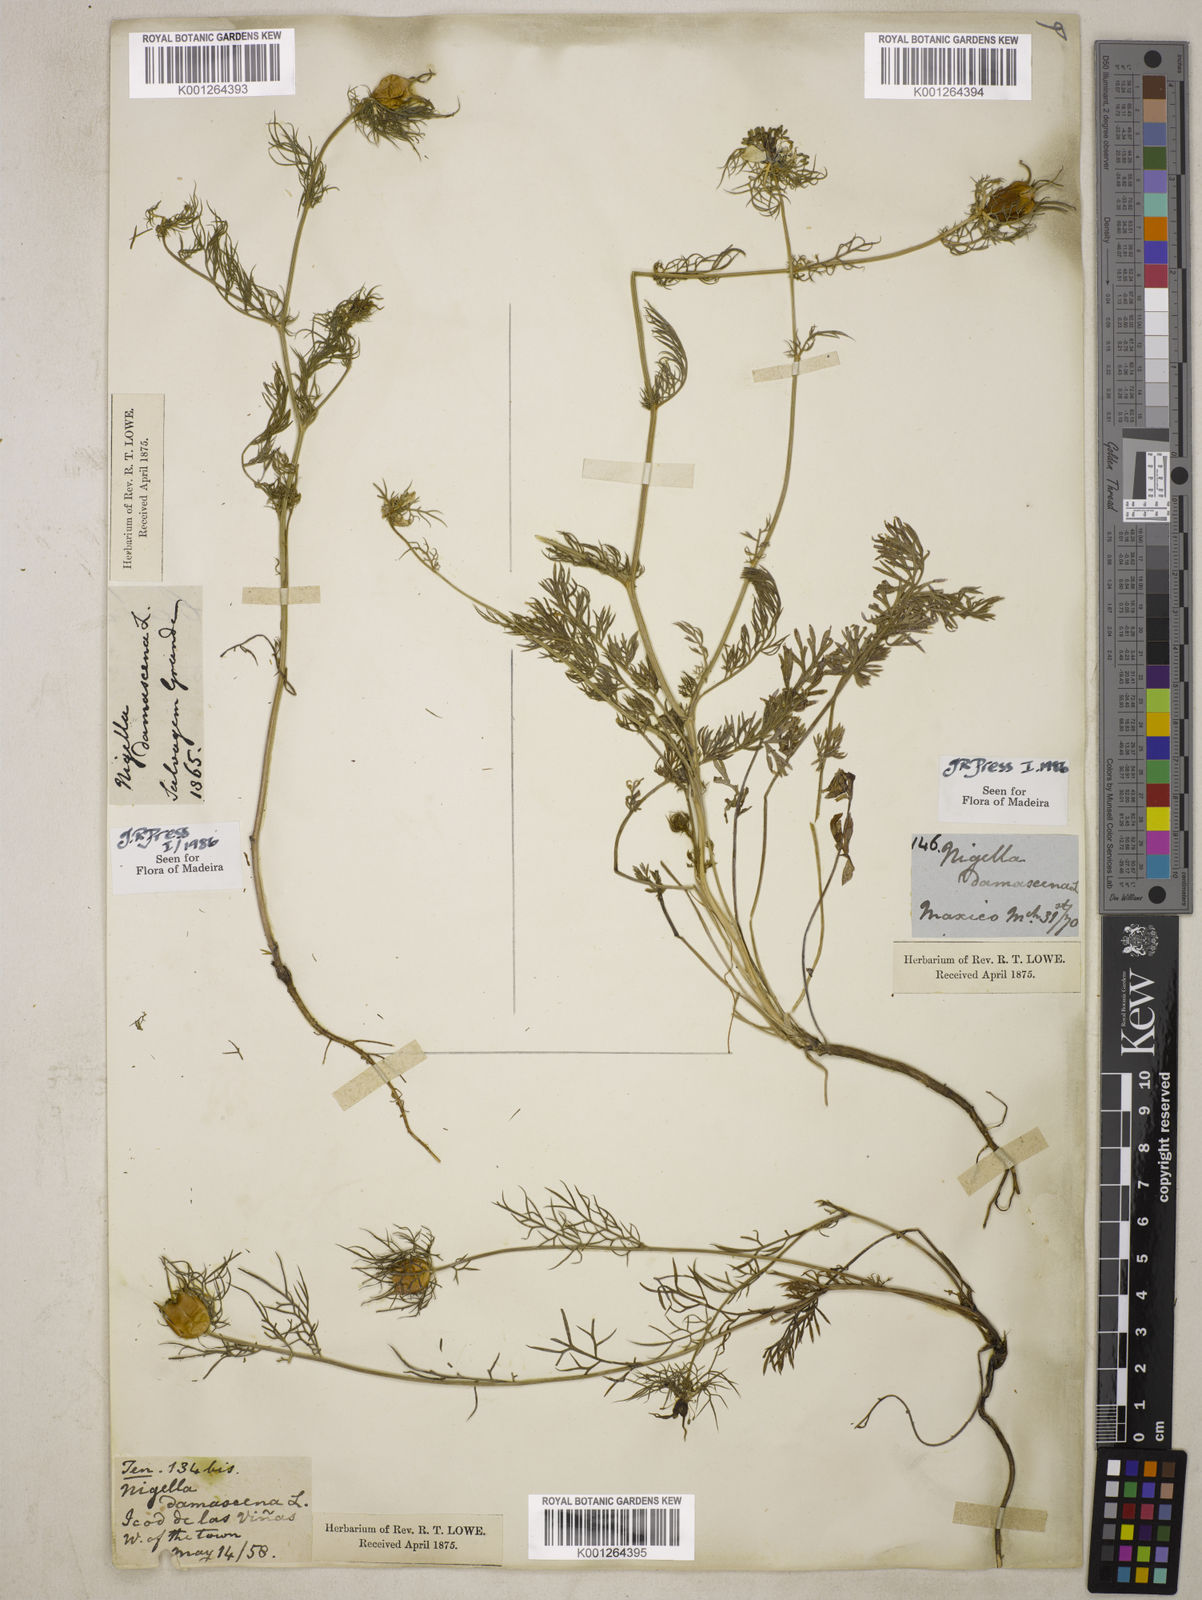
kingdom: Plantae
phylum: Tracheophyta
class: Magnoliopsida
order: Ranunculales
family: Ranunculaceae
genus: Nigella
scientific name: Nigella damascena
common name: Love-in-a-mist
